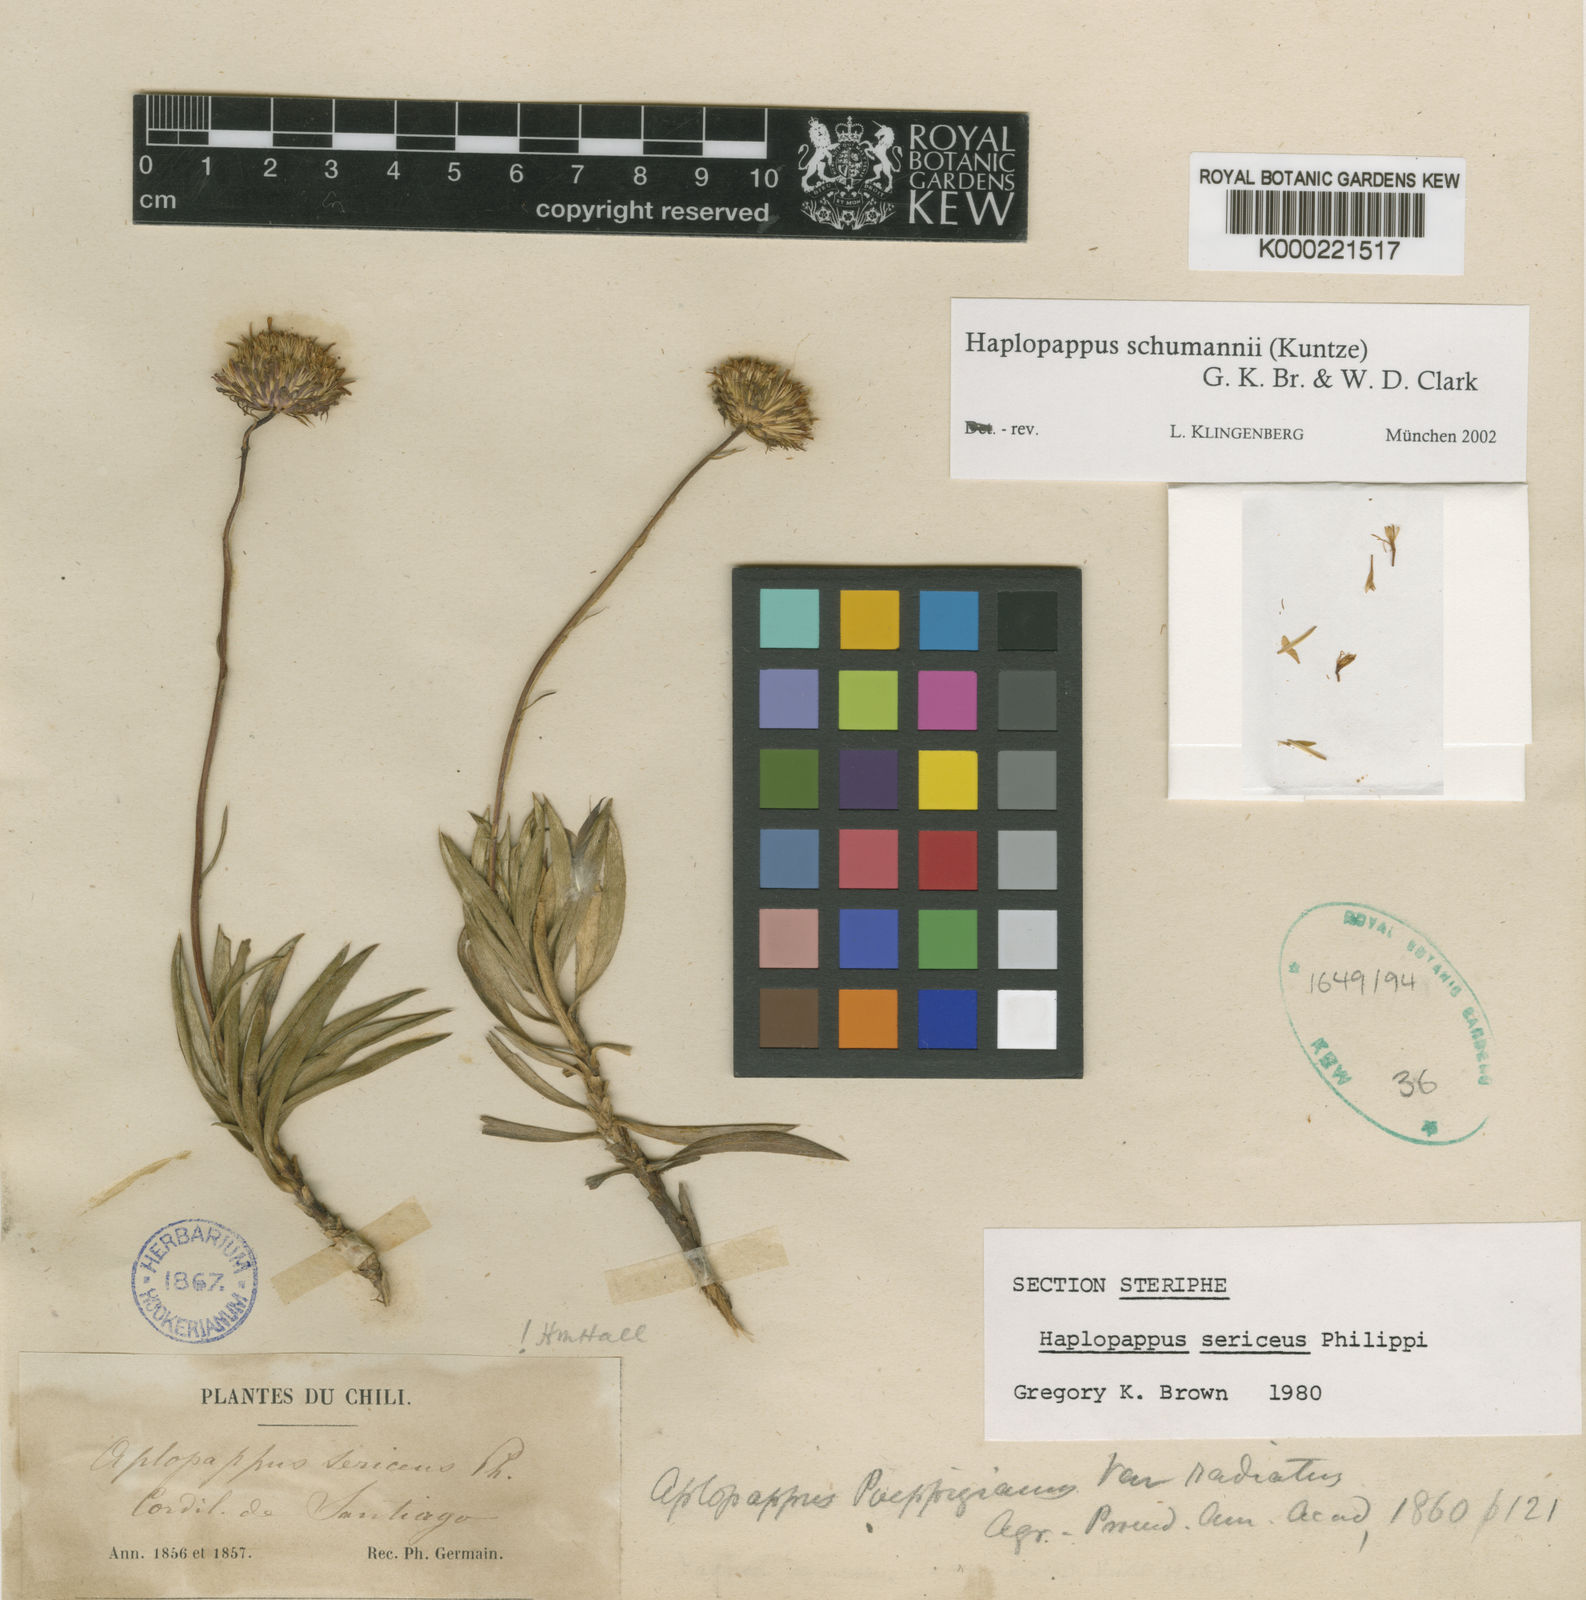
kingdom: Plantae
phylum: Tracheophyta
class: Magnoliopsida
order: Asterales
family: Asteraceae
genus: Haplopappus
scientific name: Haplopappus
